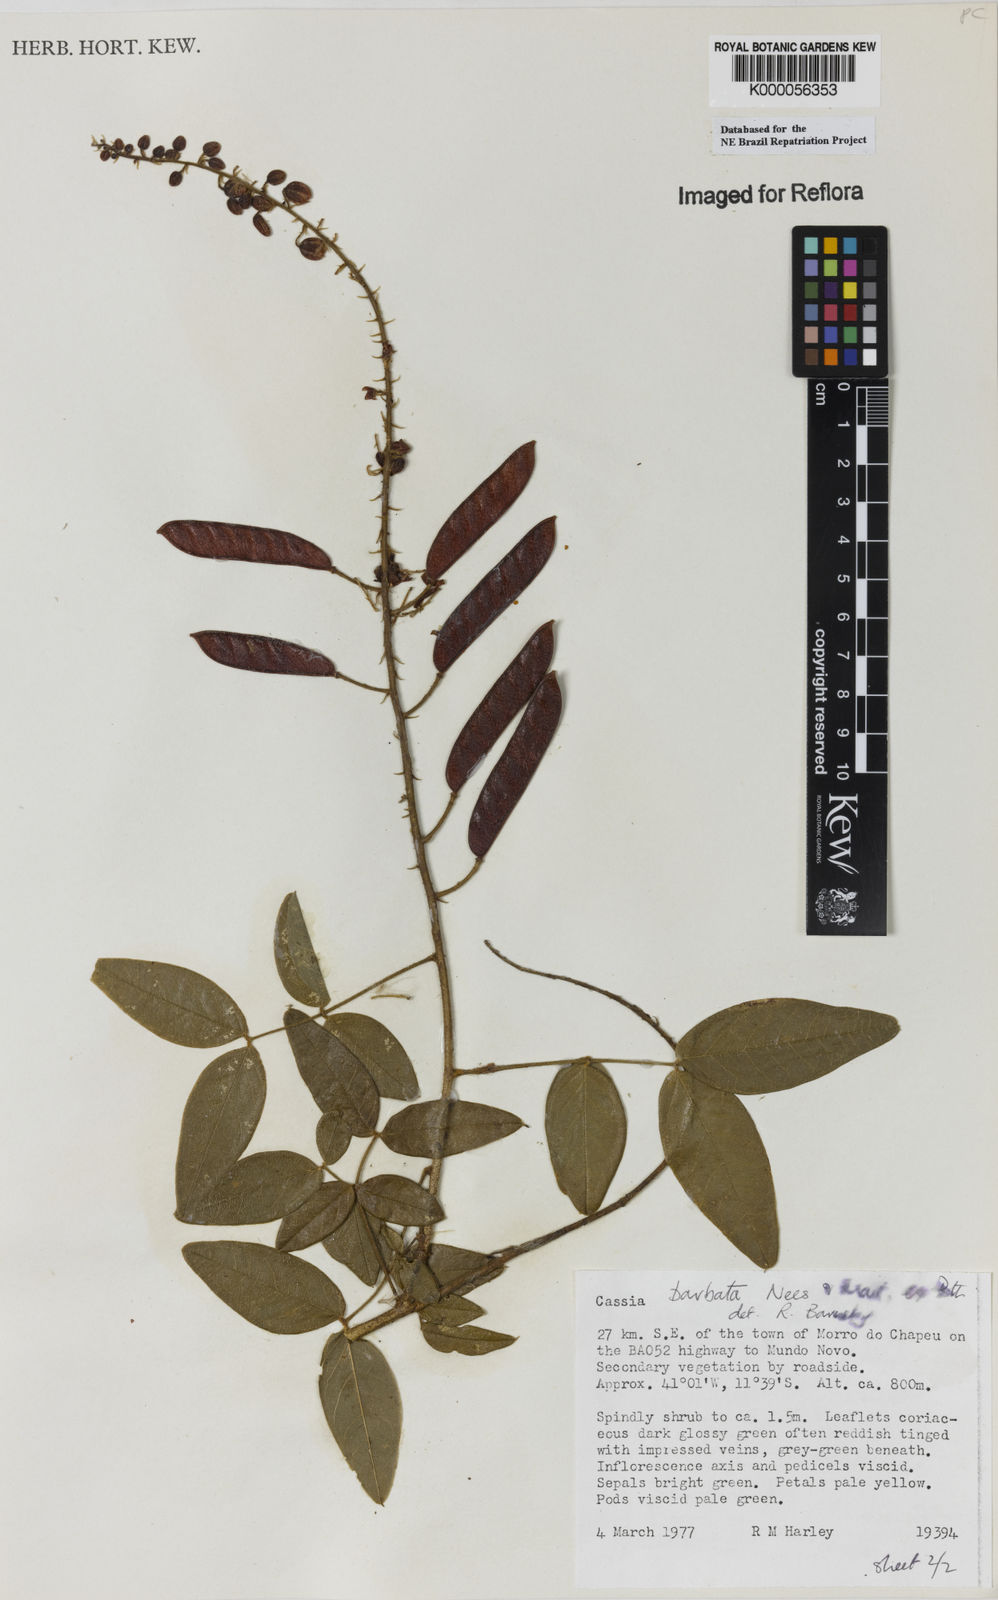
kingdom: Plantae
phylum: Tracheophyta
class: Magnoliopsida
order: Fabales
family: Fabaceae
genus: Chamaecrista
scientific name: Chamaecrista barbata
